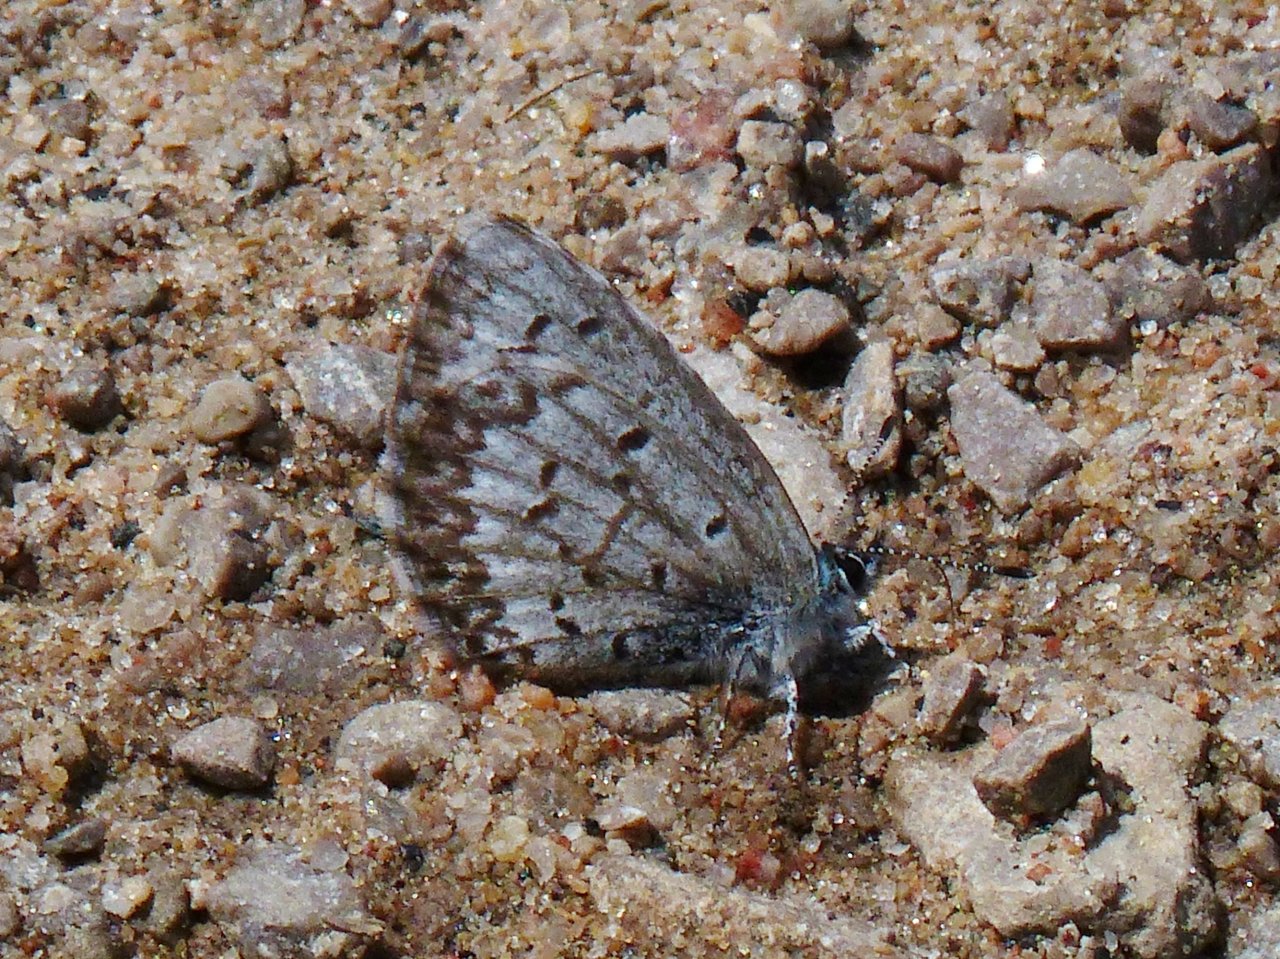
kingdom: Animalia
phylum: Arthropoda
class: Insecta
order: Lepidoptera
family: Lycaenidae
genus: Celastrina
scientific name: Celastrina lucia
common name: Northern Spring Azure
